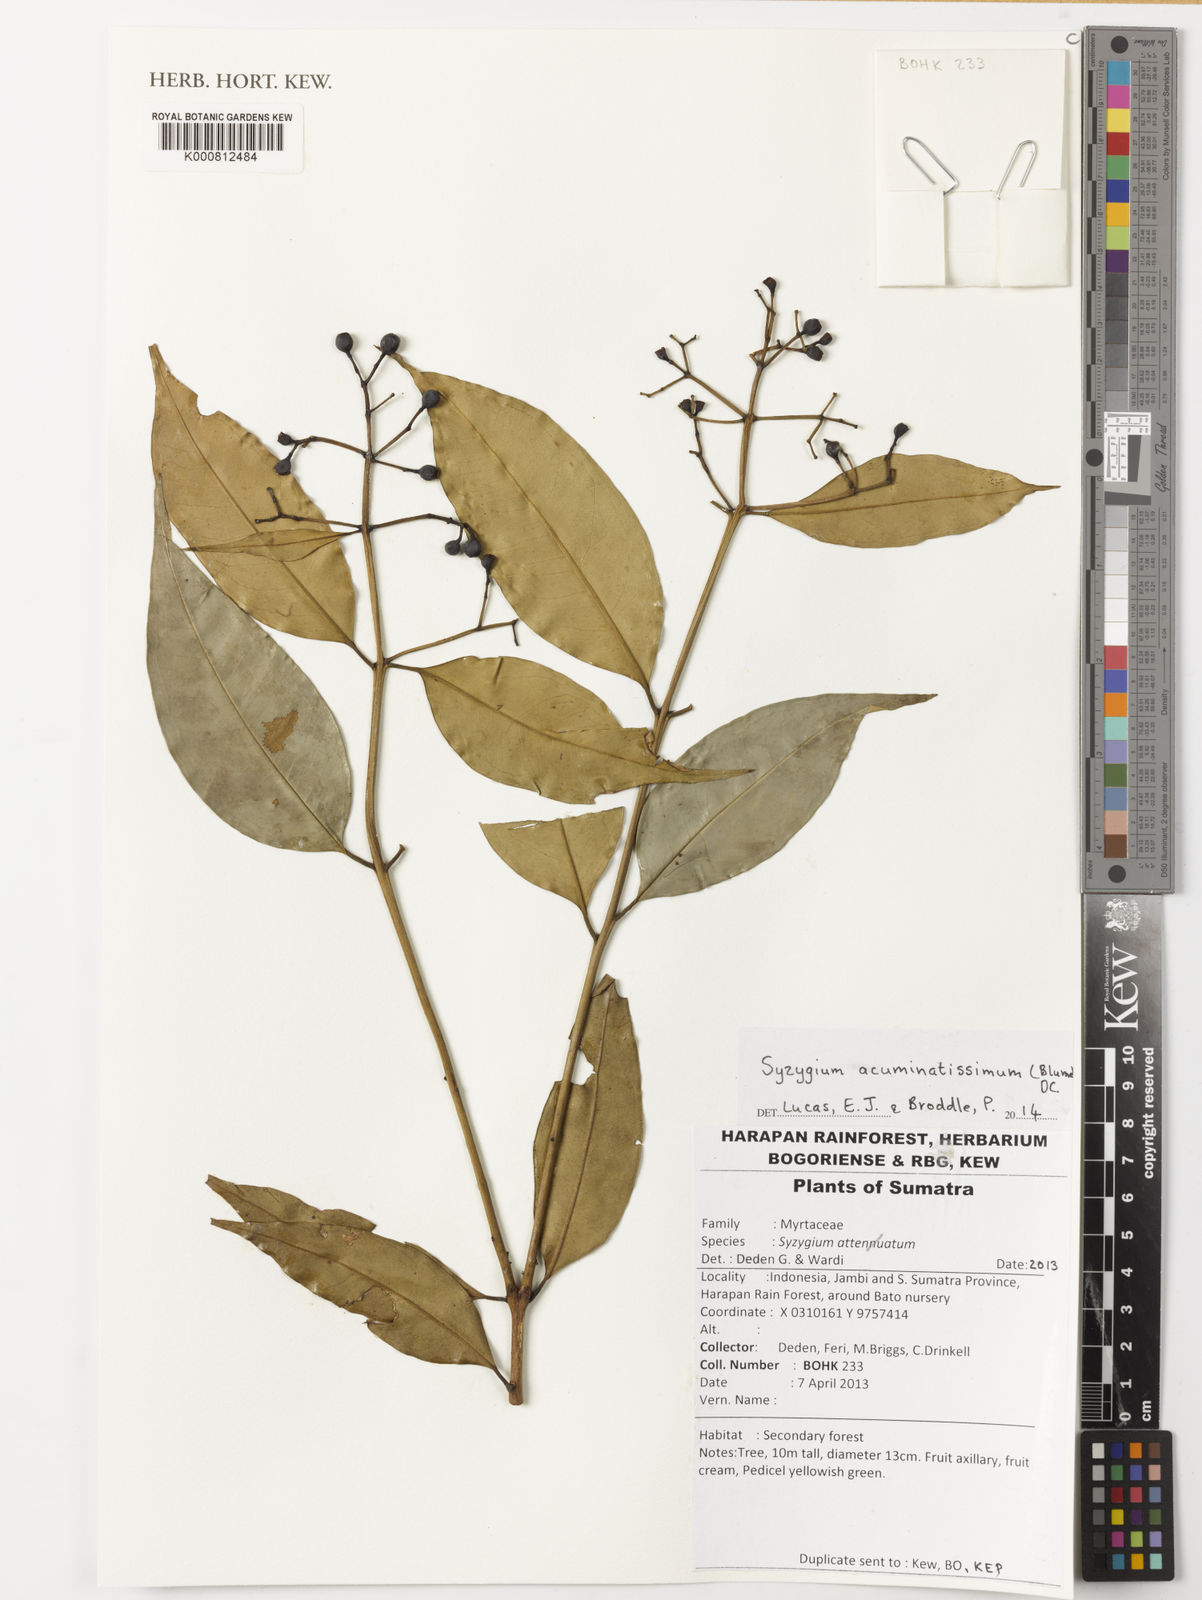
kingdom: Plantae
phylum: Tracheophyta
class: Magnoliopsida
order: Myrtales
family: Myrtaceae
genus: Syzygium
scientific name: Syzygium acuminatissimum
